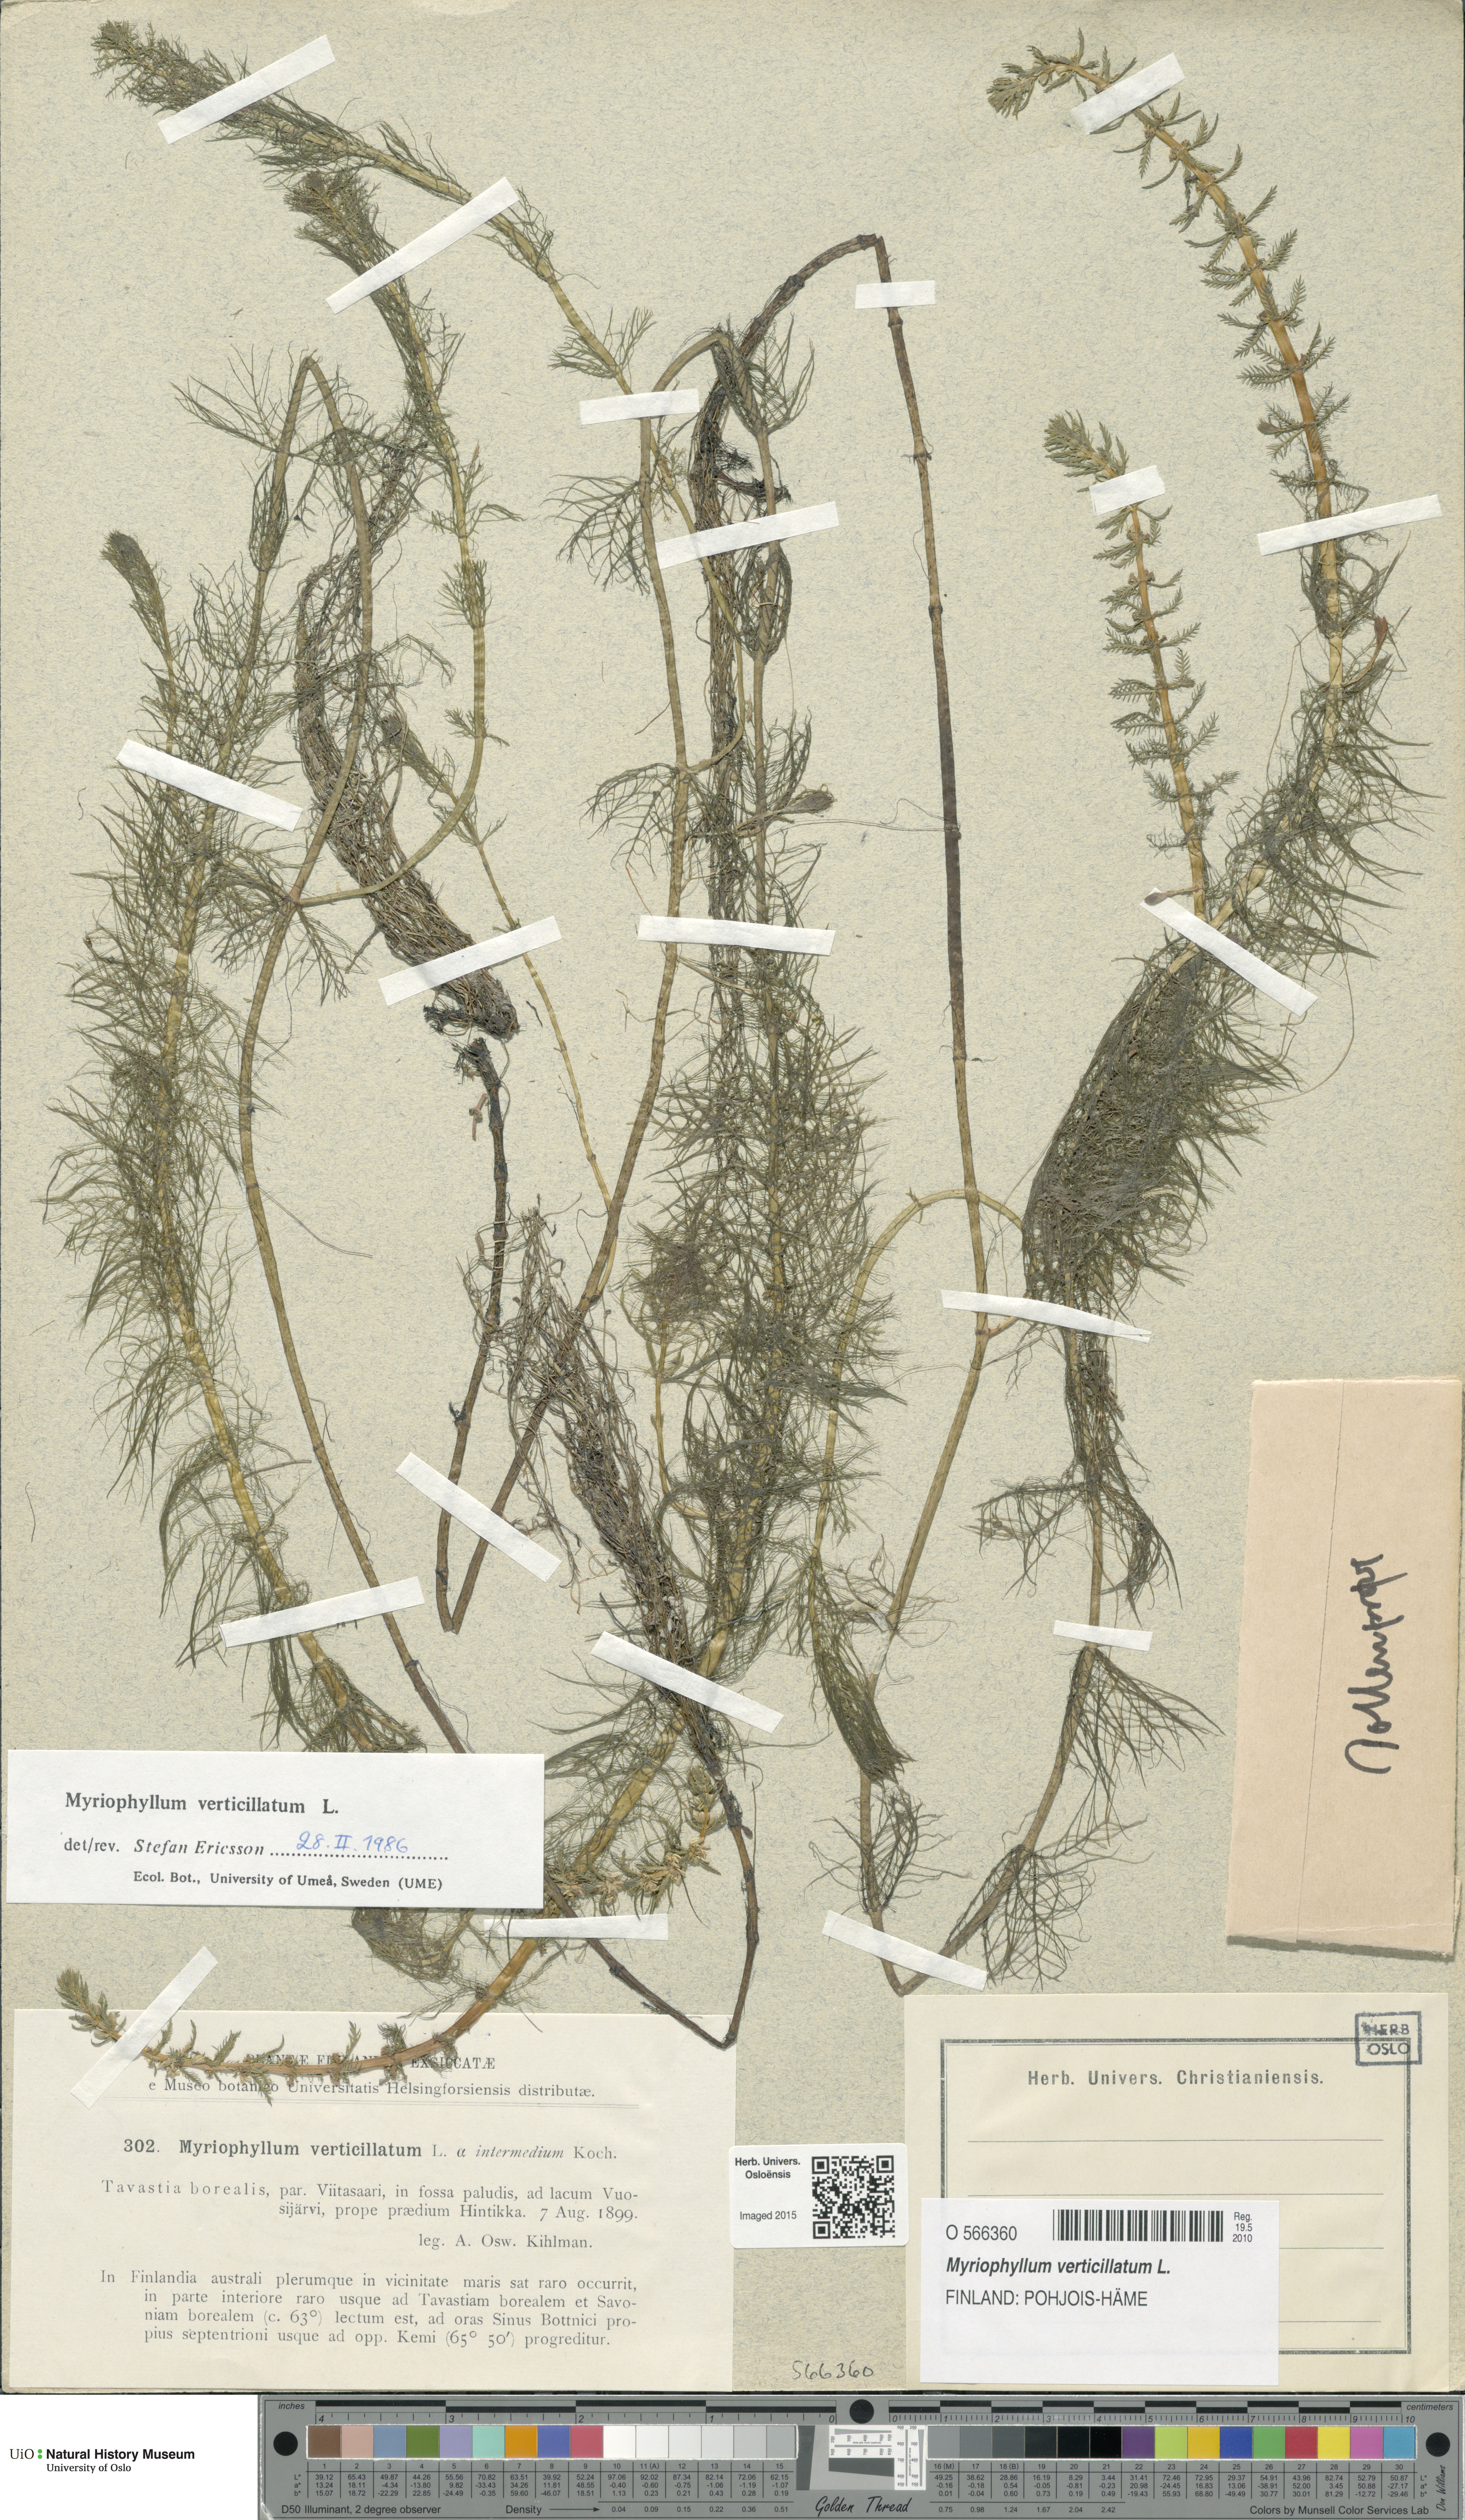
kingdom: Plantae
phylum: Tracheophyta
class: Magnoliopsida
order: Saxifragales
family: Haloragaceae
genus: Myriophyllum
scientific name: Myriophyllum verticillatum
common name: Whorled water-milfoil
